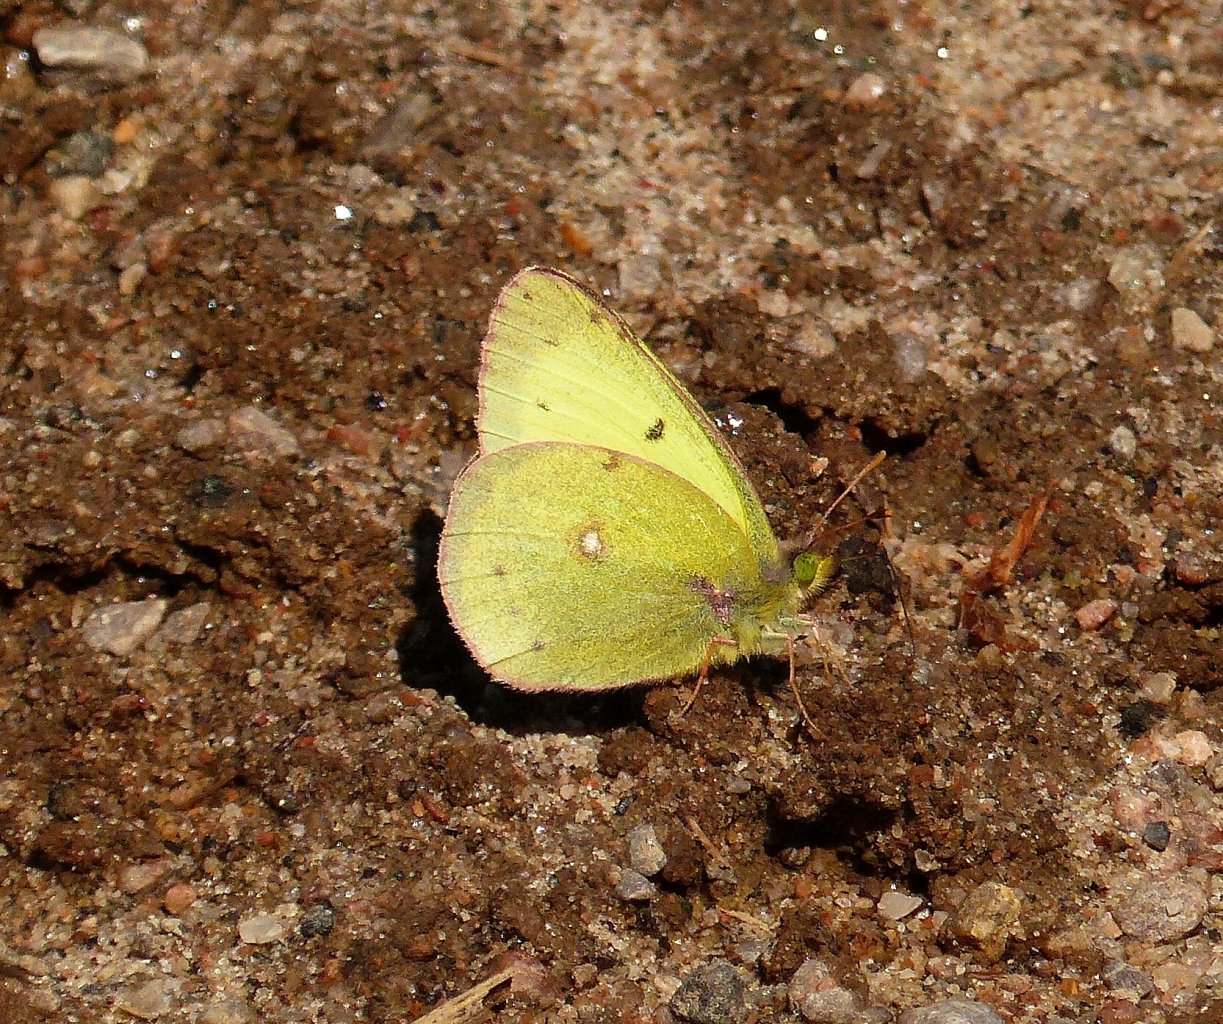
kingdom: Animalia
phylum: Arthropoda
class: Insecta
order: Lepidoptera
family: Pieridae
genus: Colias
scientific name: Colias philodice
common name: Clouded Sulphur
